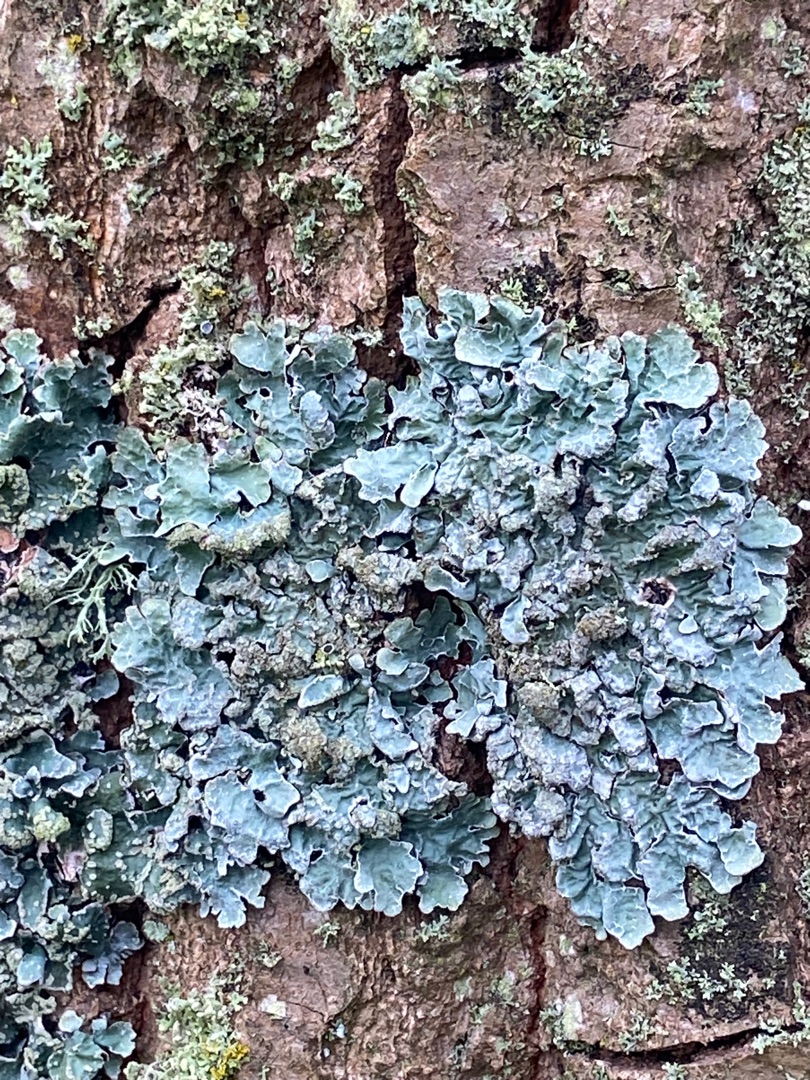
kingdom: Fungi
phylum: Ascomycota
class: Lecanoromycetes
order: Lecanorales
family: Parmeliaceae
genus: Parmelia
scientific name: Parmelia sulcata
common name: Rynket skållav
